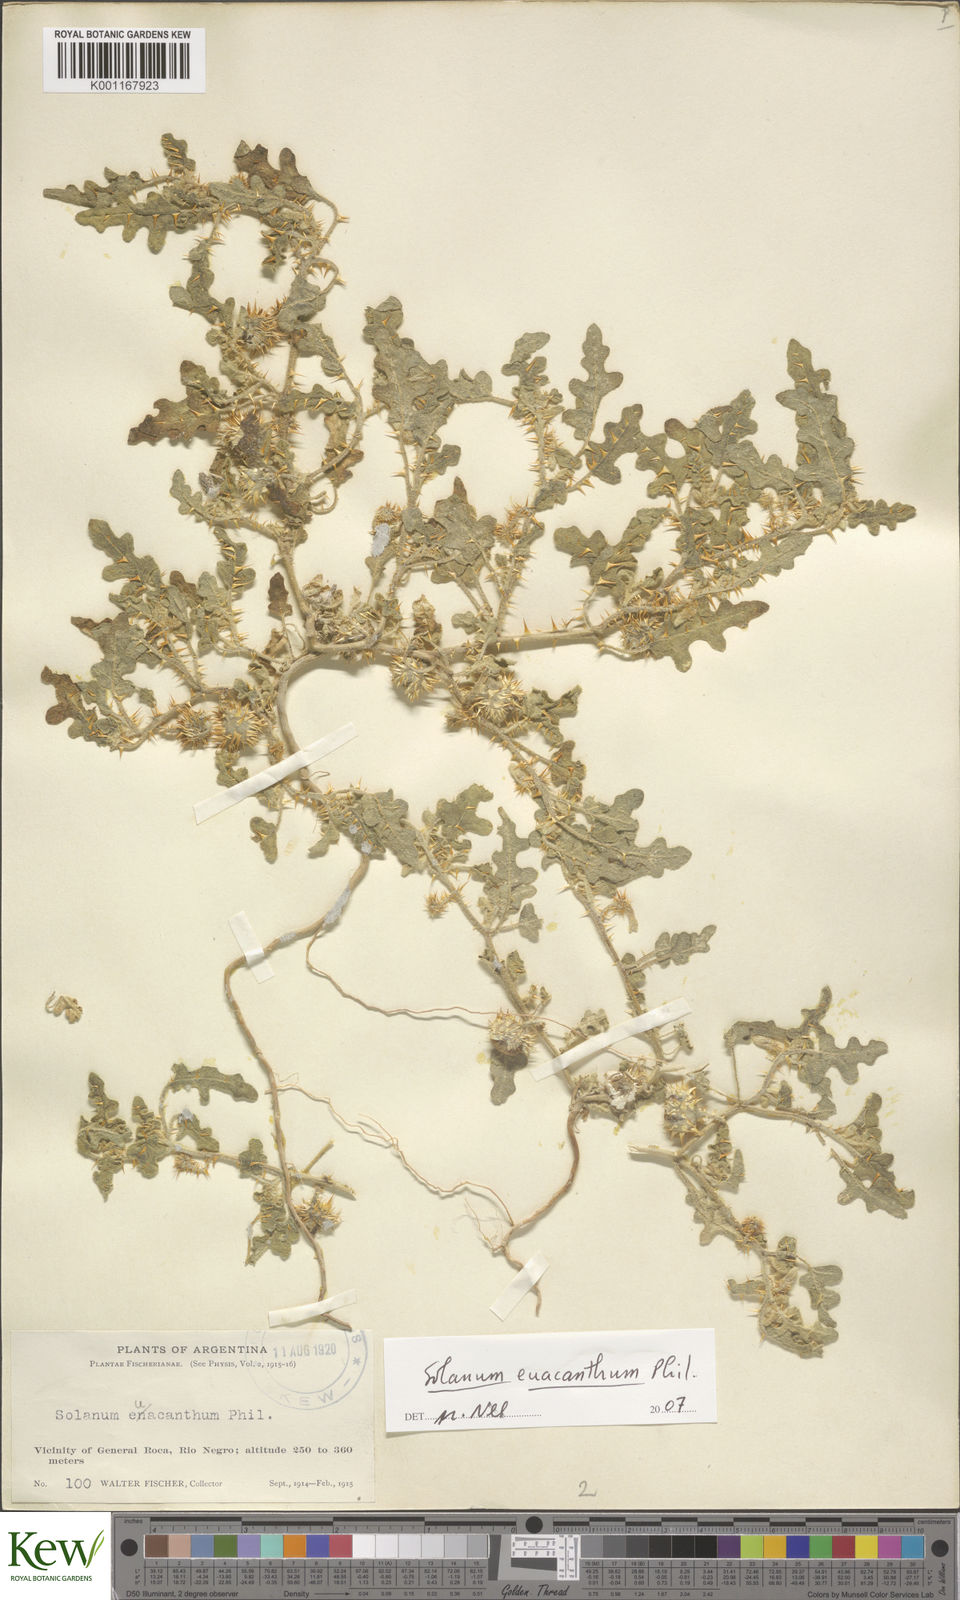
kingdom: Plantae
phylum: Tracheophyta
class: Magnoliopsida
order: Solanales
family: Solanaceae
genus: Solanum
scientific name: Solanum euacanthum
